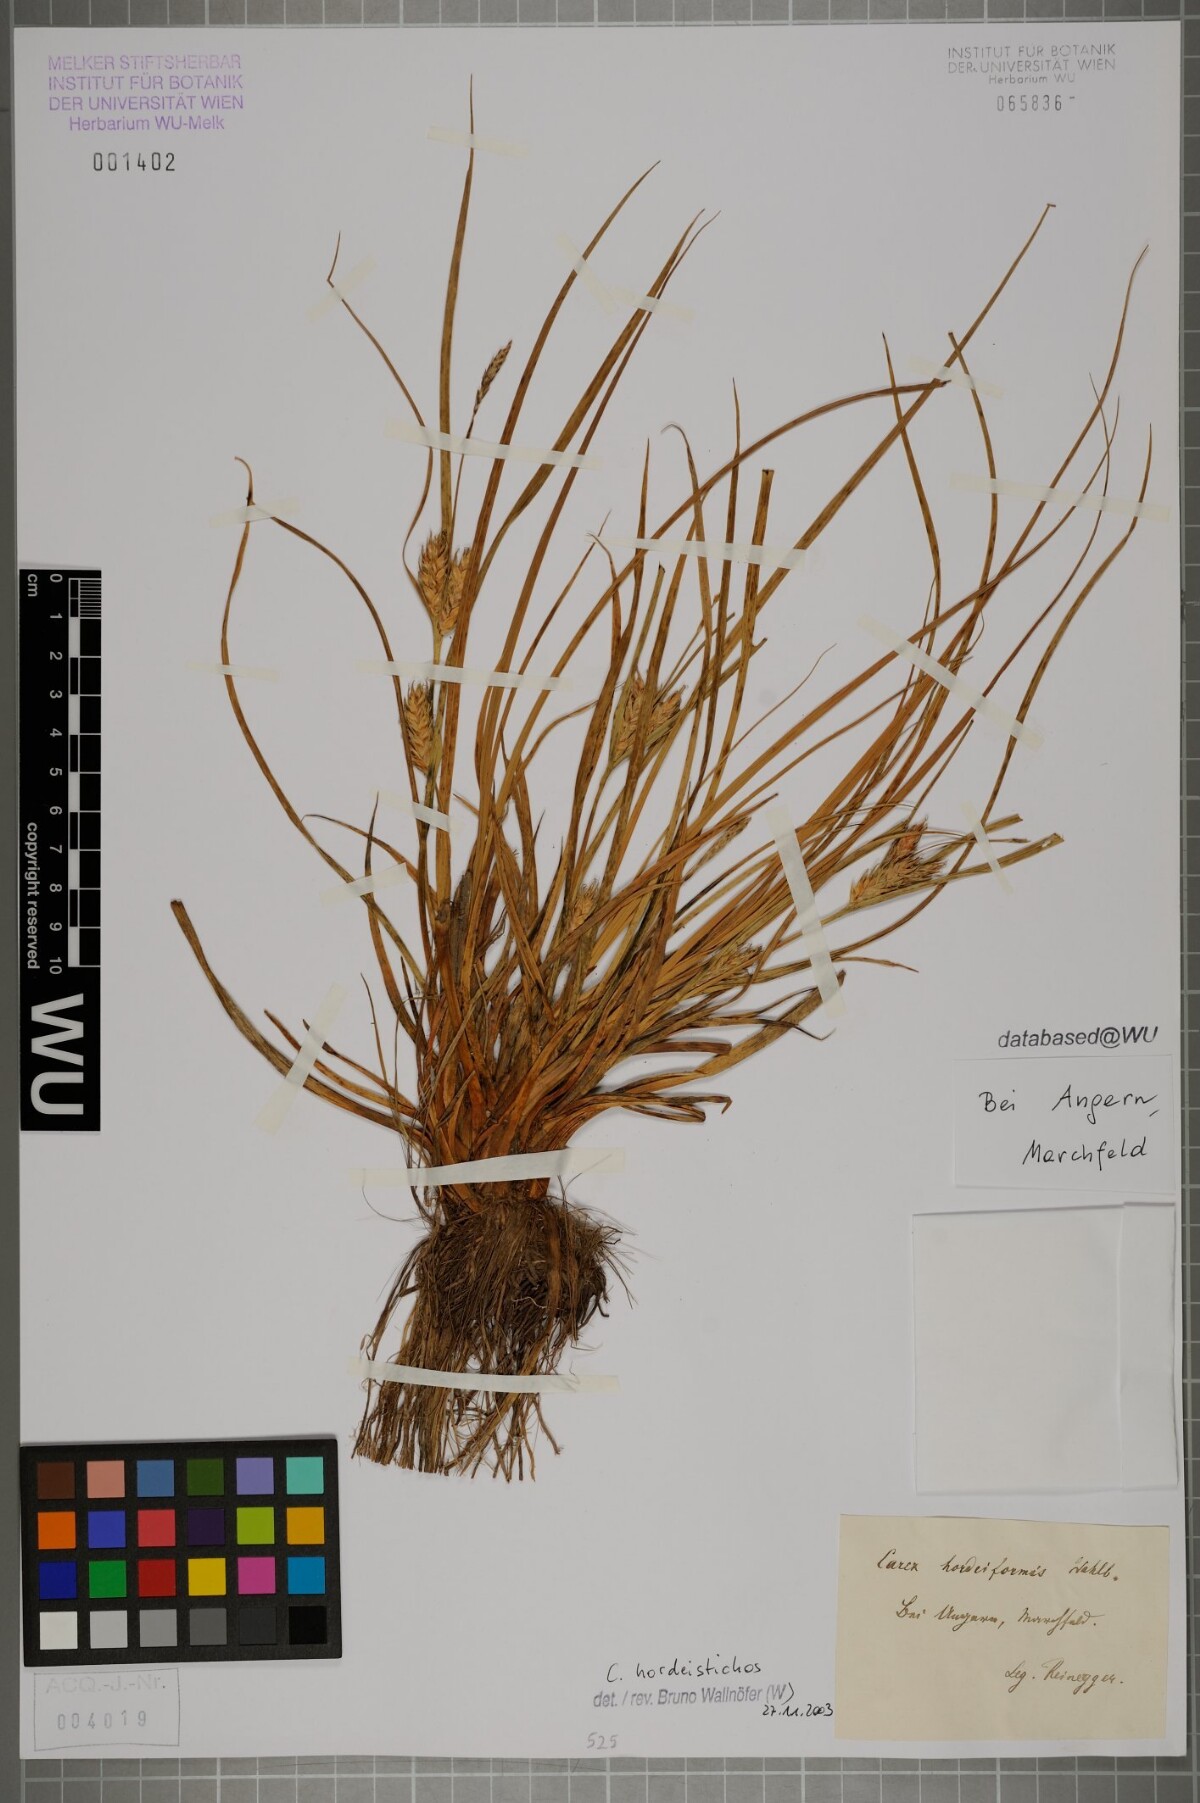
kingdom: Plantae
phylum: Tracheophyta
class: Liliopsida
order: Poales
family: Cyperaceae
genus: Carex
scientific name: Carex hordeistichos
